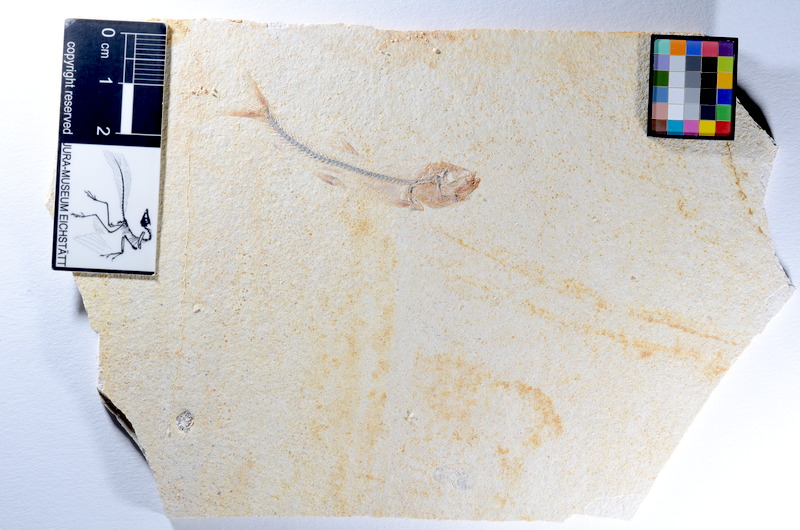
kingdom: Animalia
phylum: Chordata
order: Salmoniformes
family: Orthogonikleithridae
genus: Orthogonikleithrus
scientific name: Orthogonikleithrus hoelli
